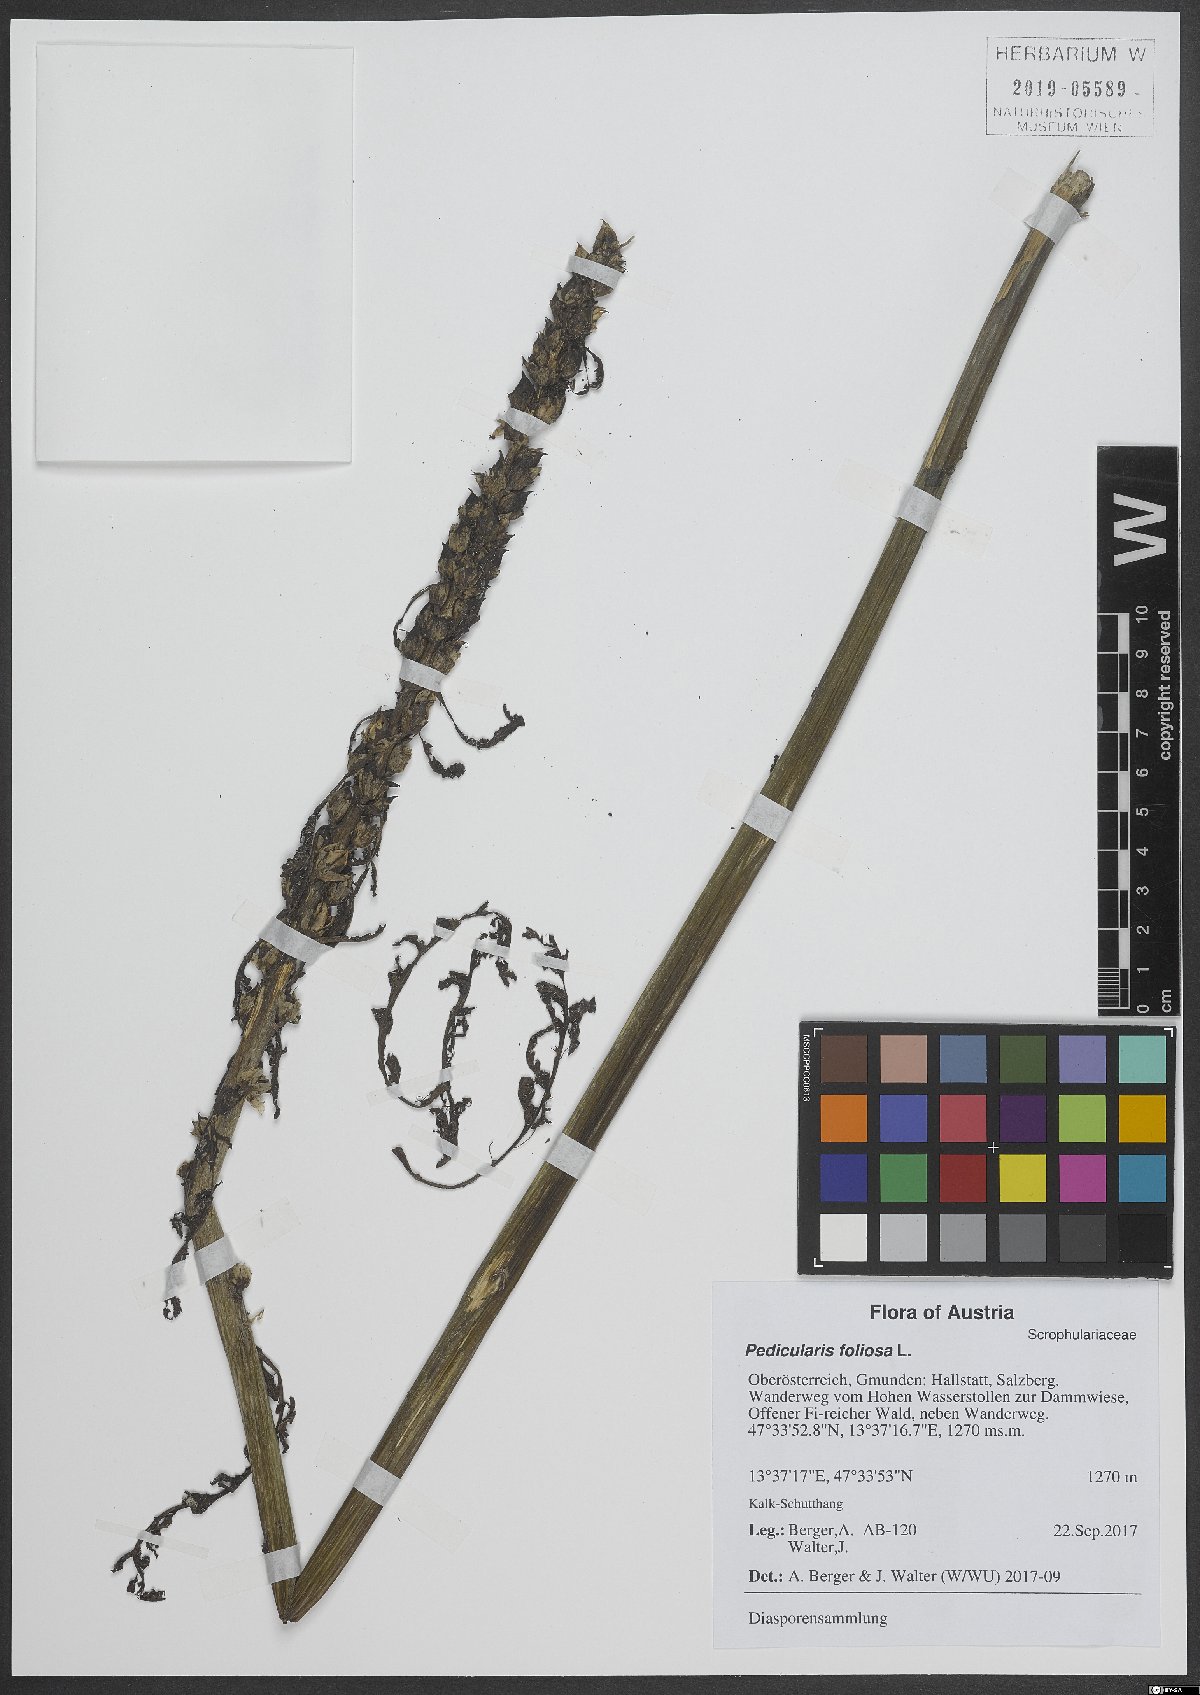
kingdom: Plantae
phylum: Tracheophyta
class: Magnoliopsida
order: Lamiales
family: Orobanchaceae
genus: Pedicularis
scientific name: Pedicularis foliosa
